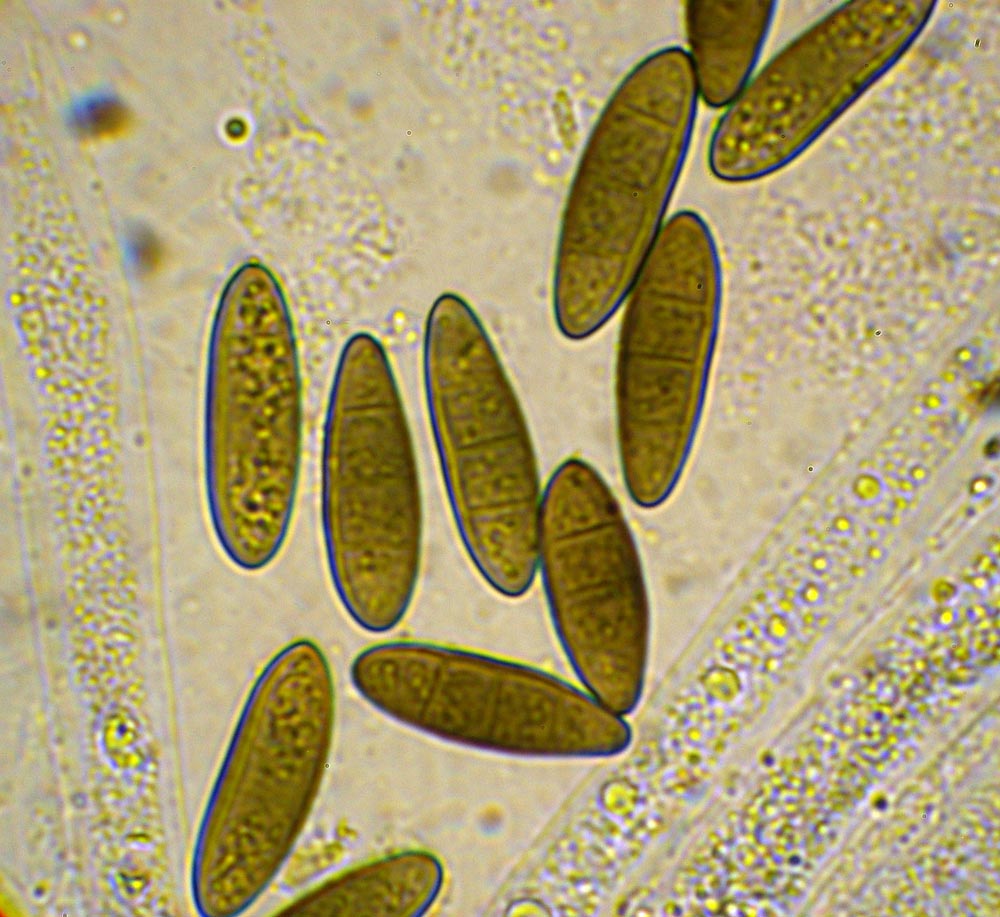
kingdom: Fungi
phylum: Ascomycota
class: Sordariomycetes
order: Amphisphaeriales
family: Clypeosphaeriaceae
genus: Clypeosphaeria
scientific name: Clypeosphaeria mamillana
